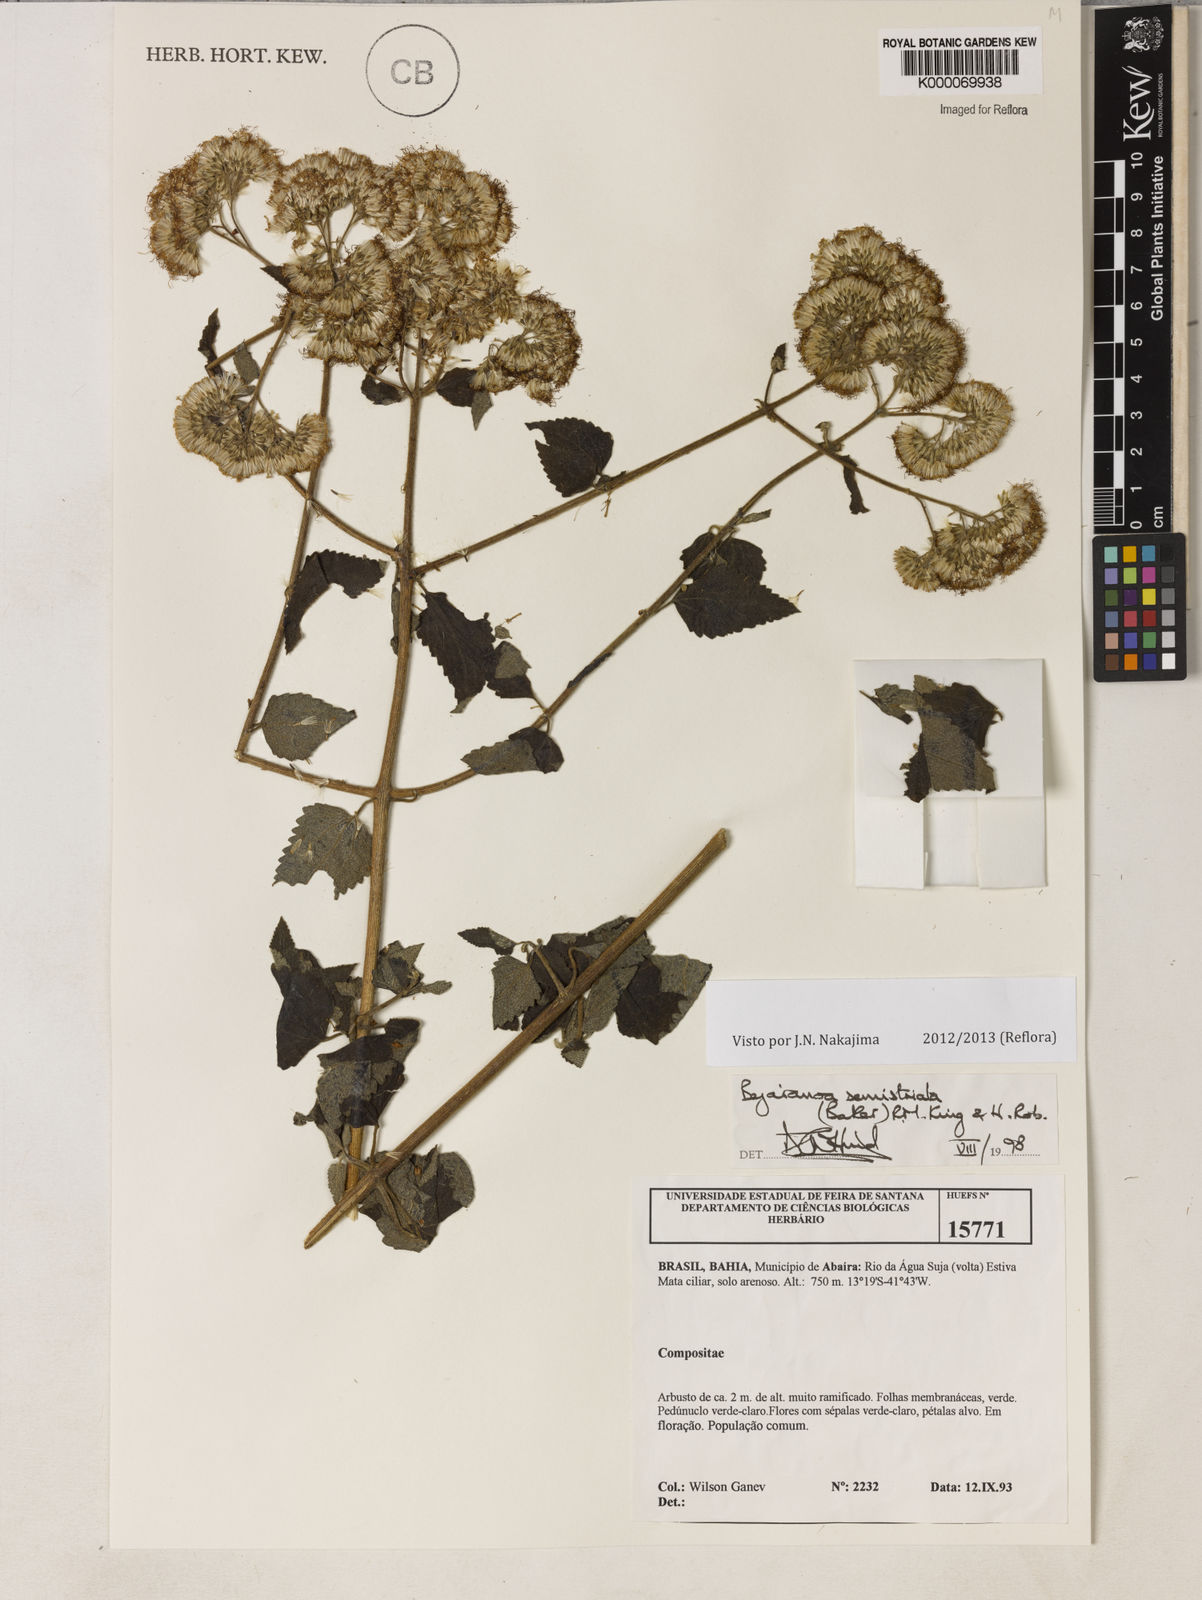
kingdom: Plantae
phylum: Tracheophyta
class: Magnoliopsida
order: Asterales
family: Asteraceae
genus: Bejaranoa
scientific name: Bejaranoa semistriata
